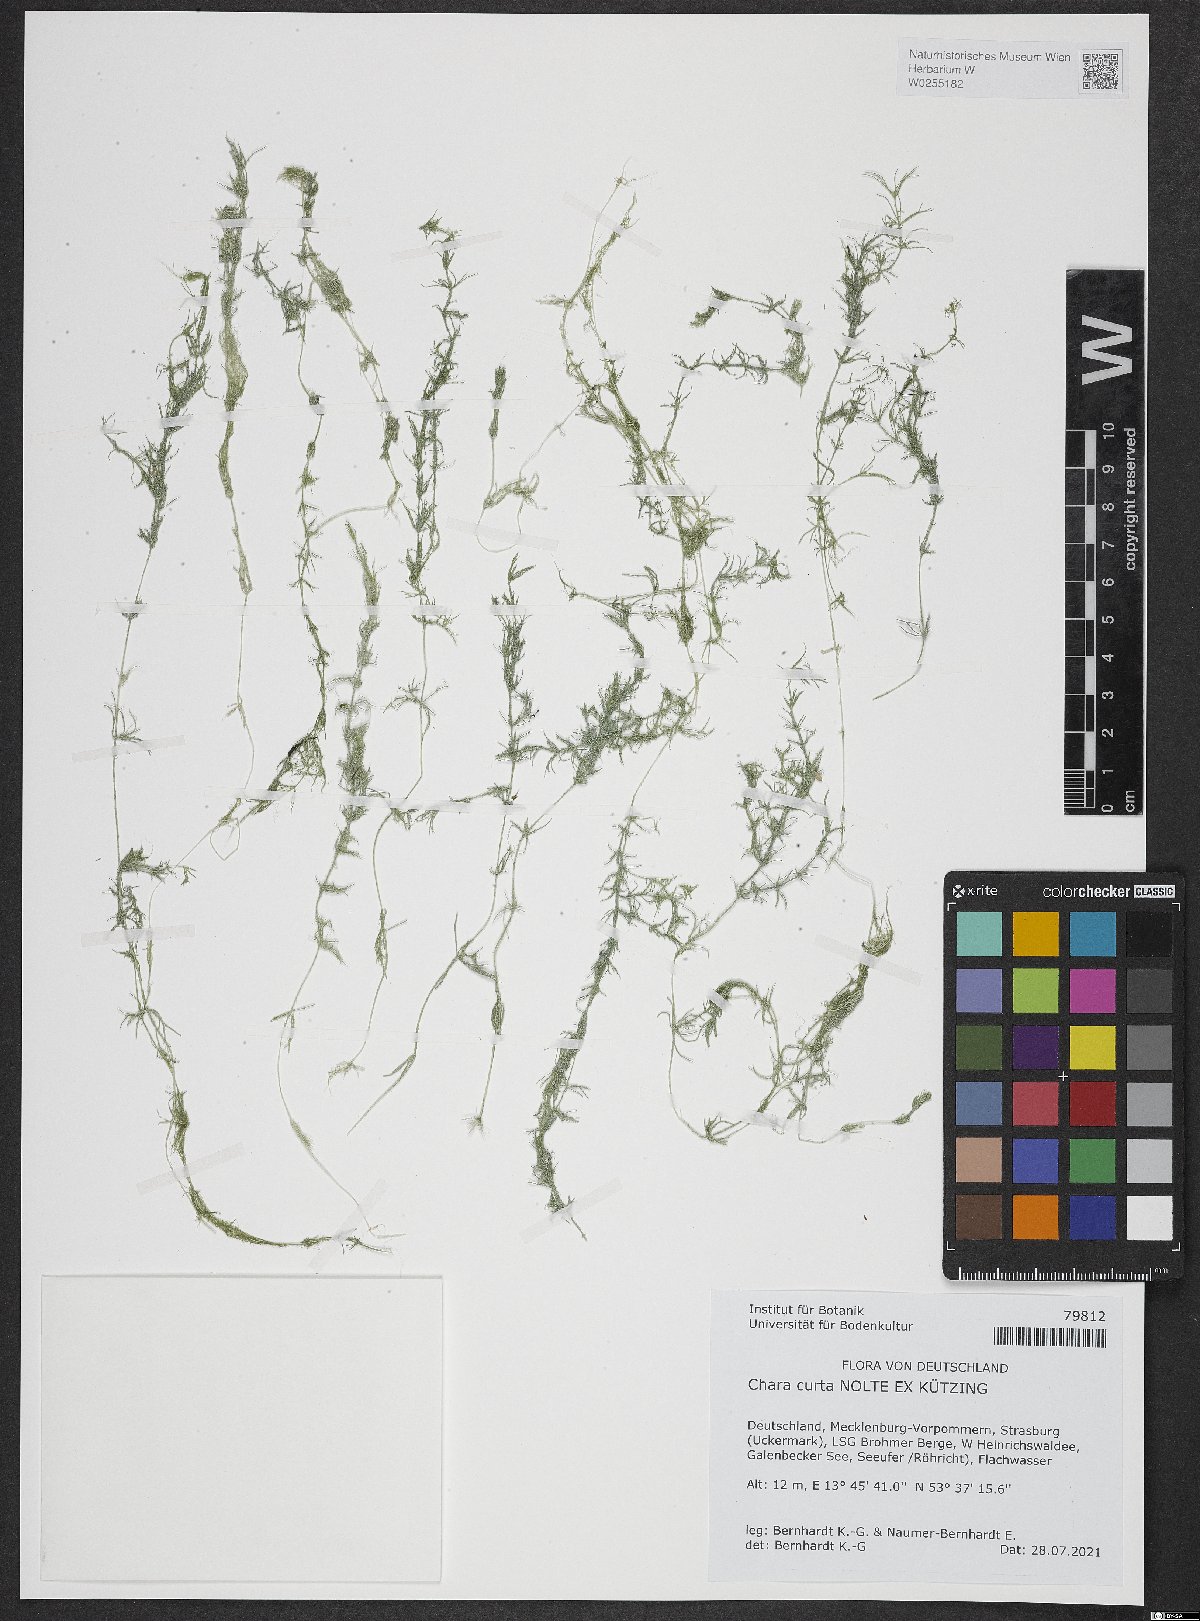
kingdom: Plantae
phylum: Charophyta
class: Charophyceae
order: Charales
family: Characeae
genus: Chara
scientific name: Chara aspera
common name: Rough stonewort
